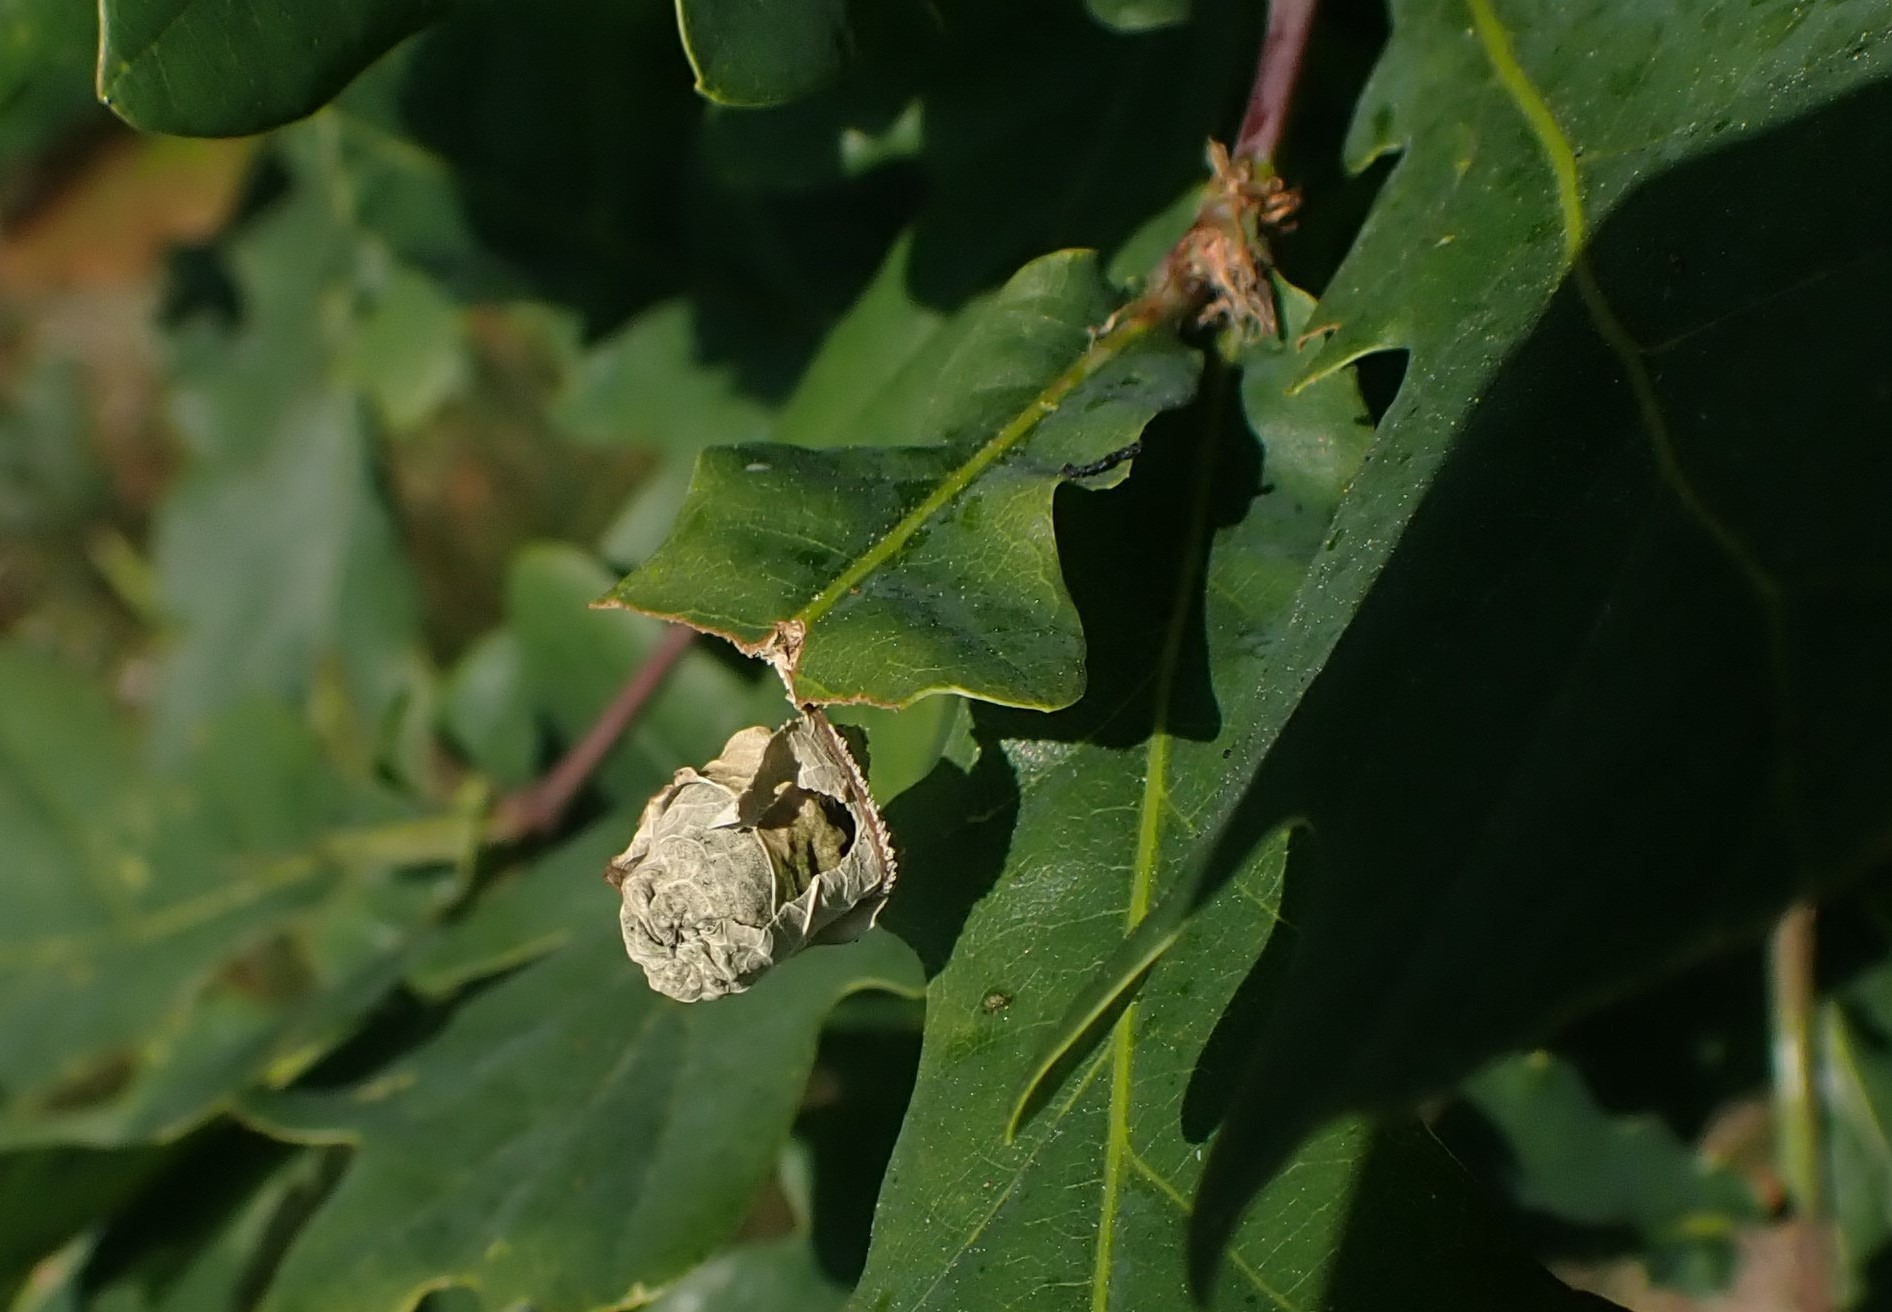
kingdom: Animalia
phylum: Arthropoda
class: Insecta
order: Coleoptera
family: Attelabidae
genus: Attelabus
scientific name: Attelabus nitens
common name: Egebladruller
